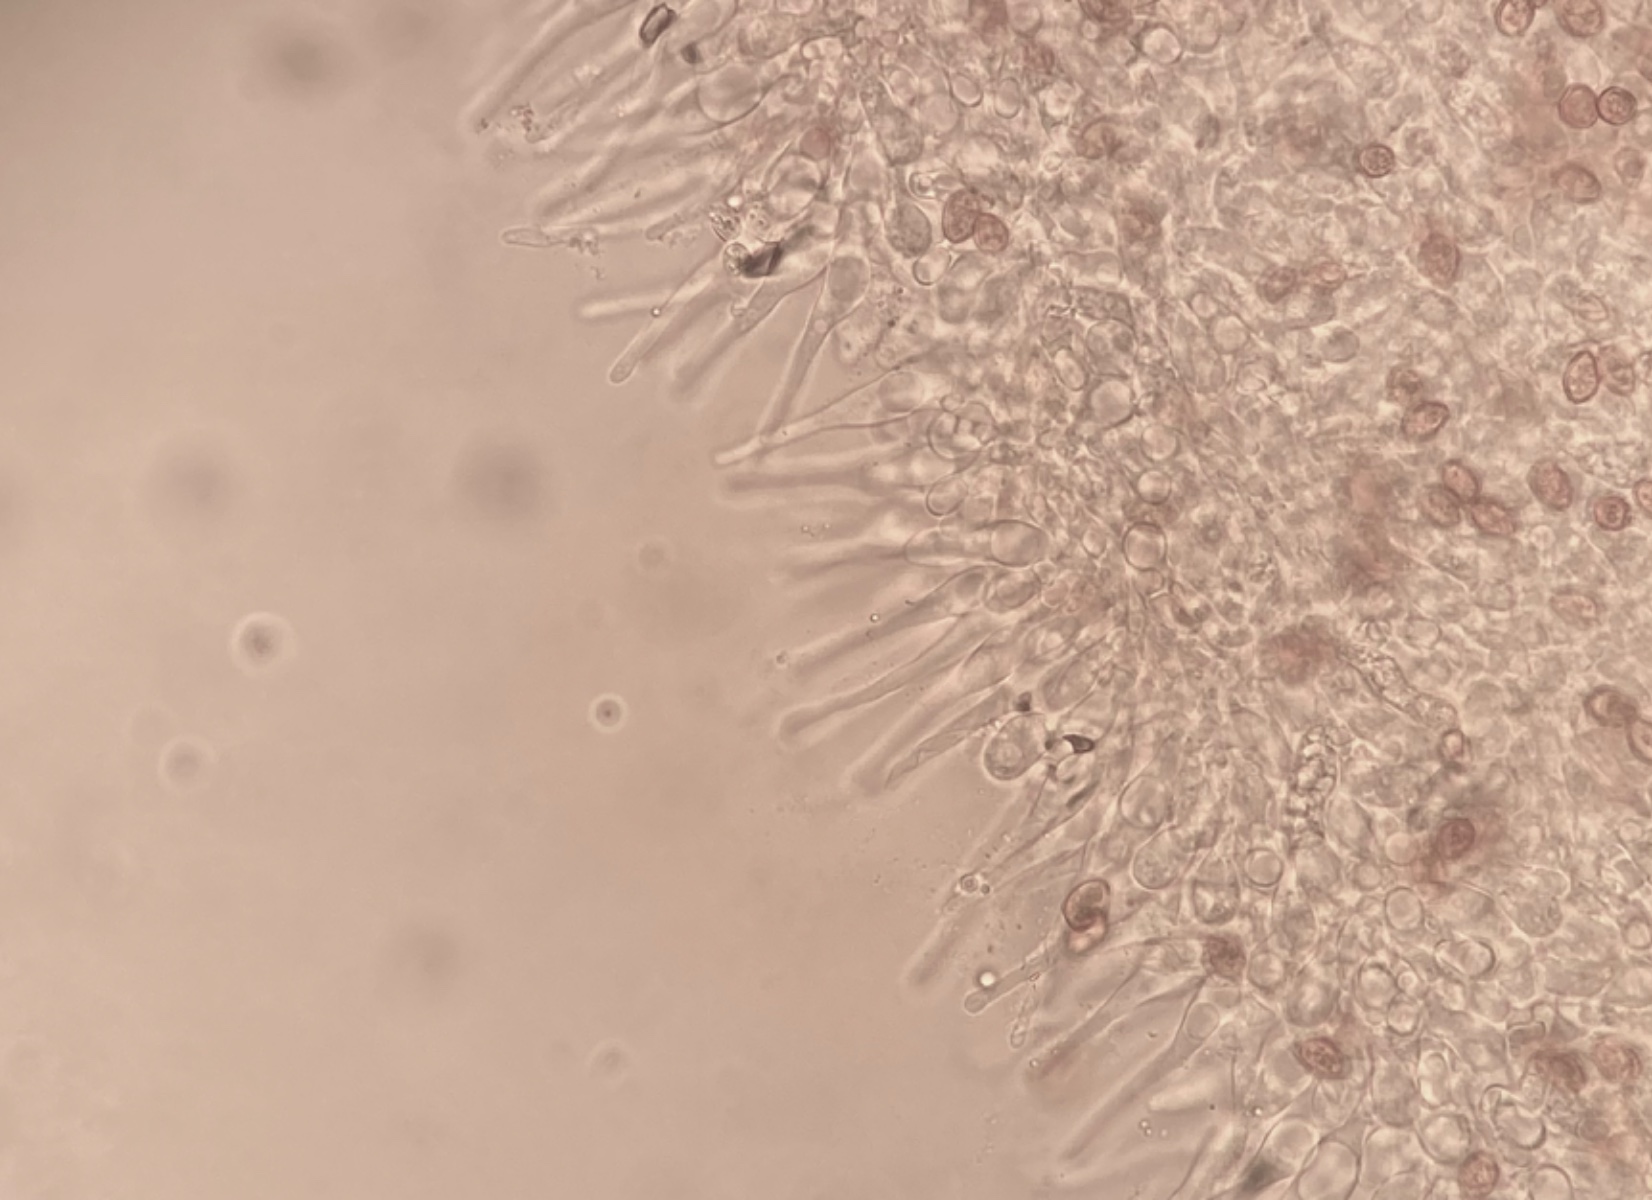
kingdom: Fungi
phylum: Basidiomycota
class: Agaricomycetes
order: Agaricales
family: Hymenogastraceae
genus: Galerina
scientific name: Galerina esteve-raventosii
